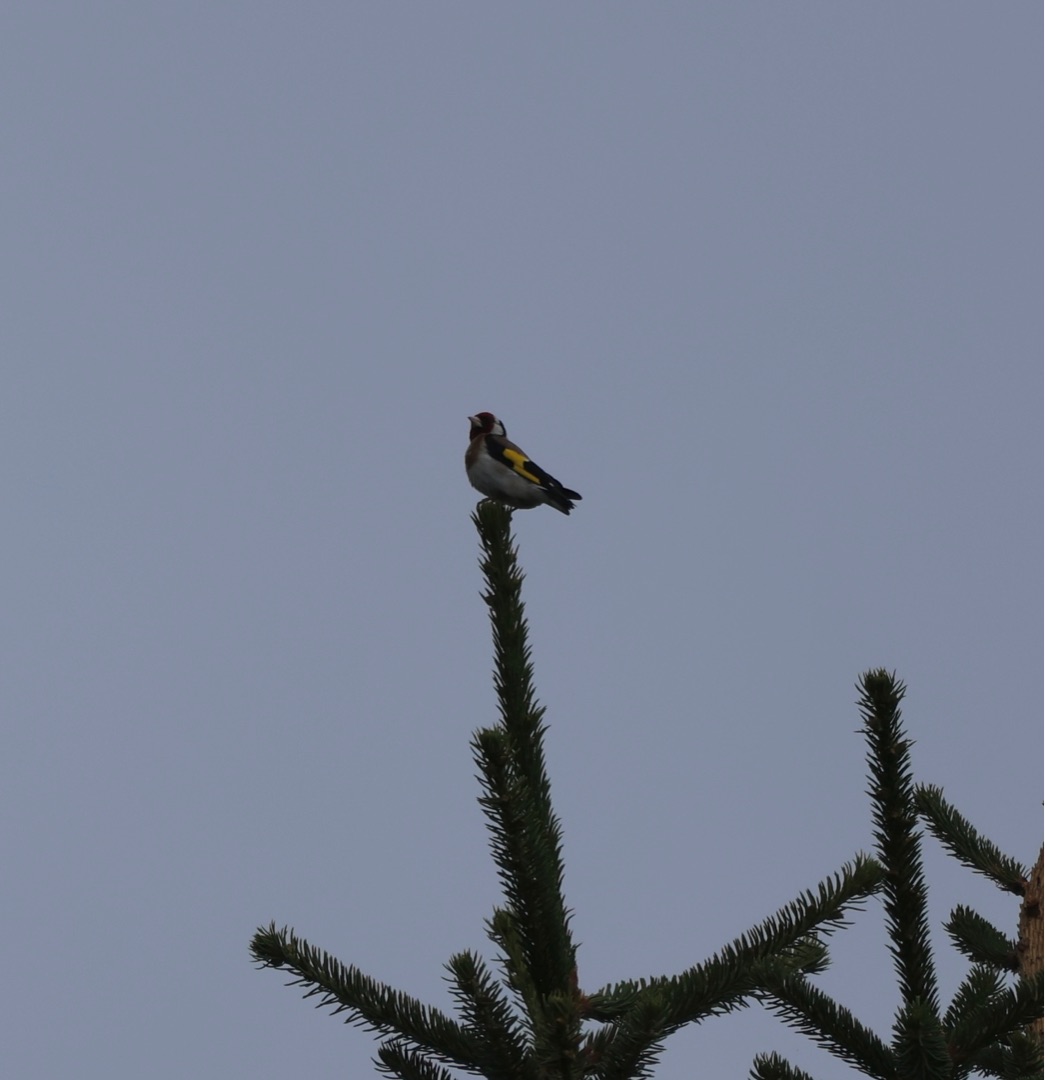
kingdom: Animalia
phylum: Chordata
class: Aves
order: Passeriformes
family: Fringillidae
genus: Carduelis
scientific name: Carduelis carduelis
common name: Stillits
